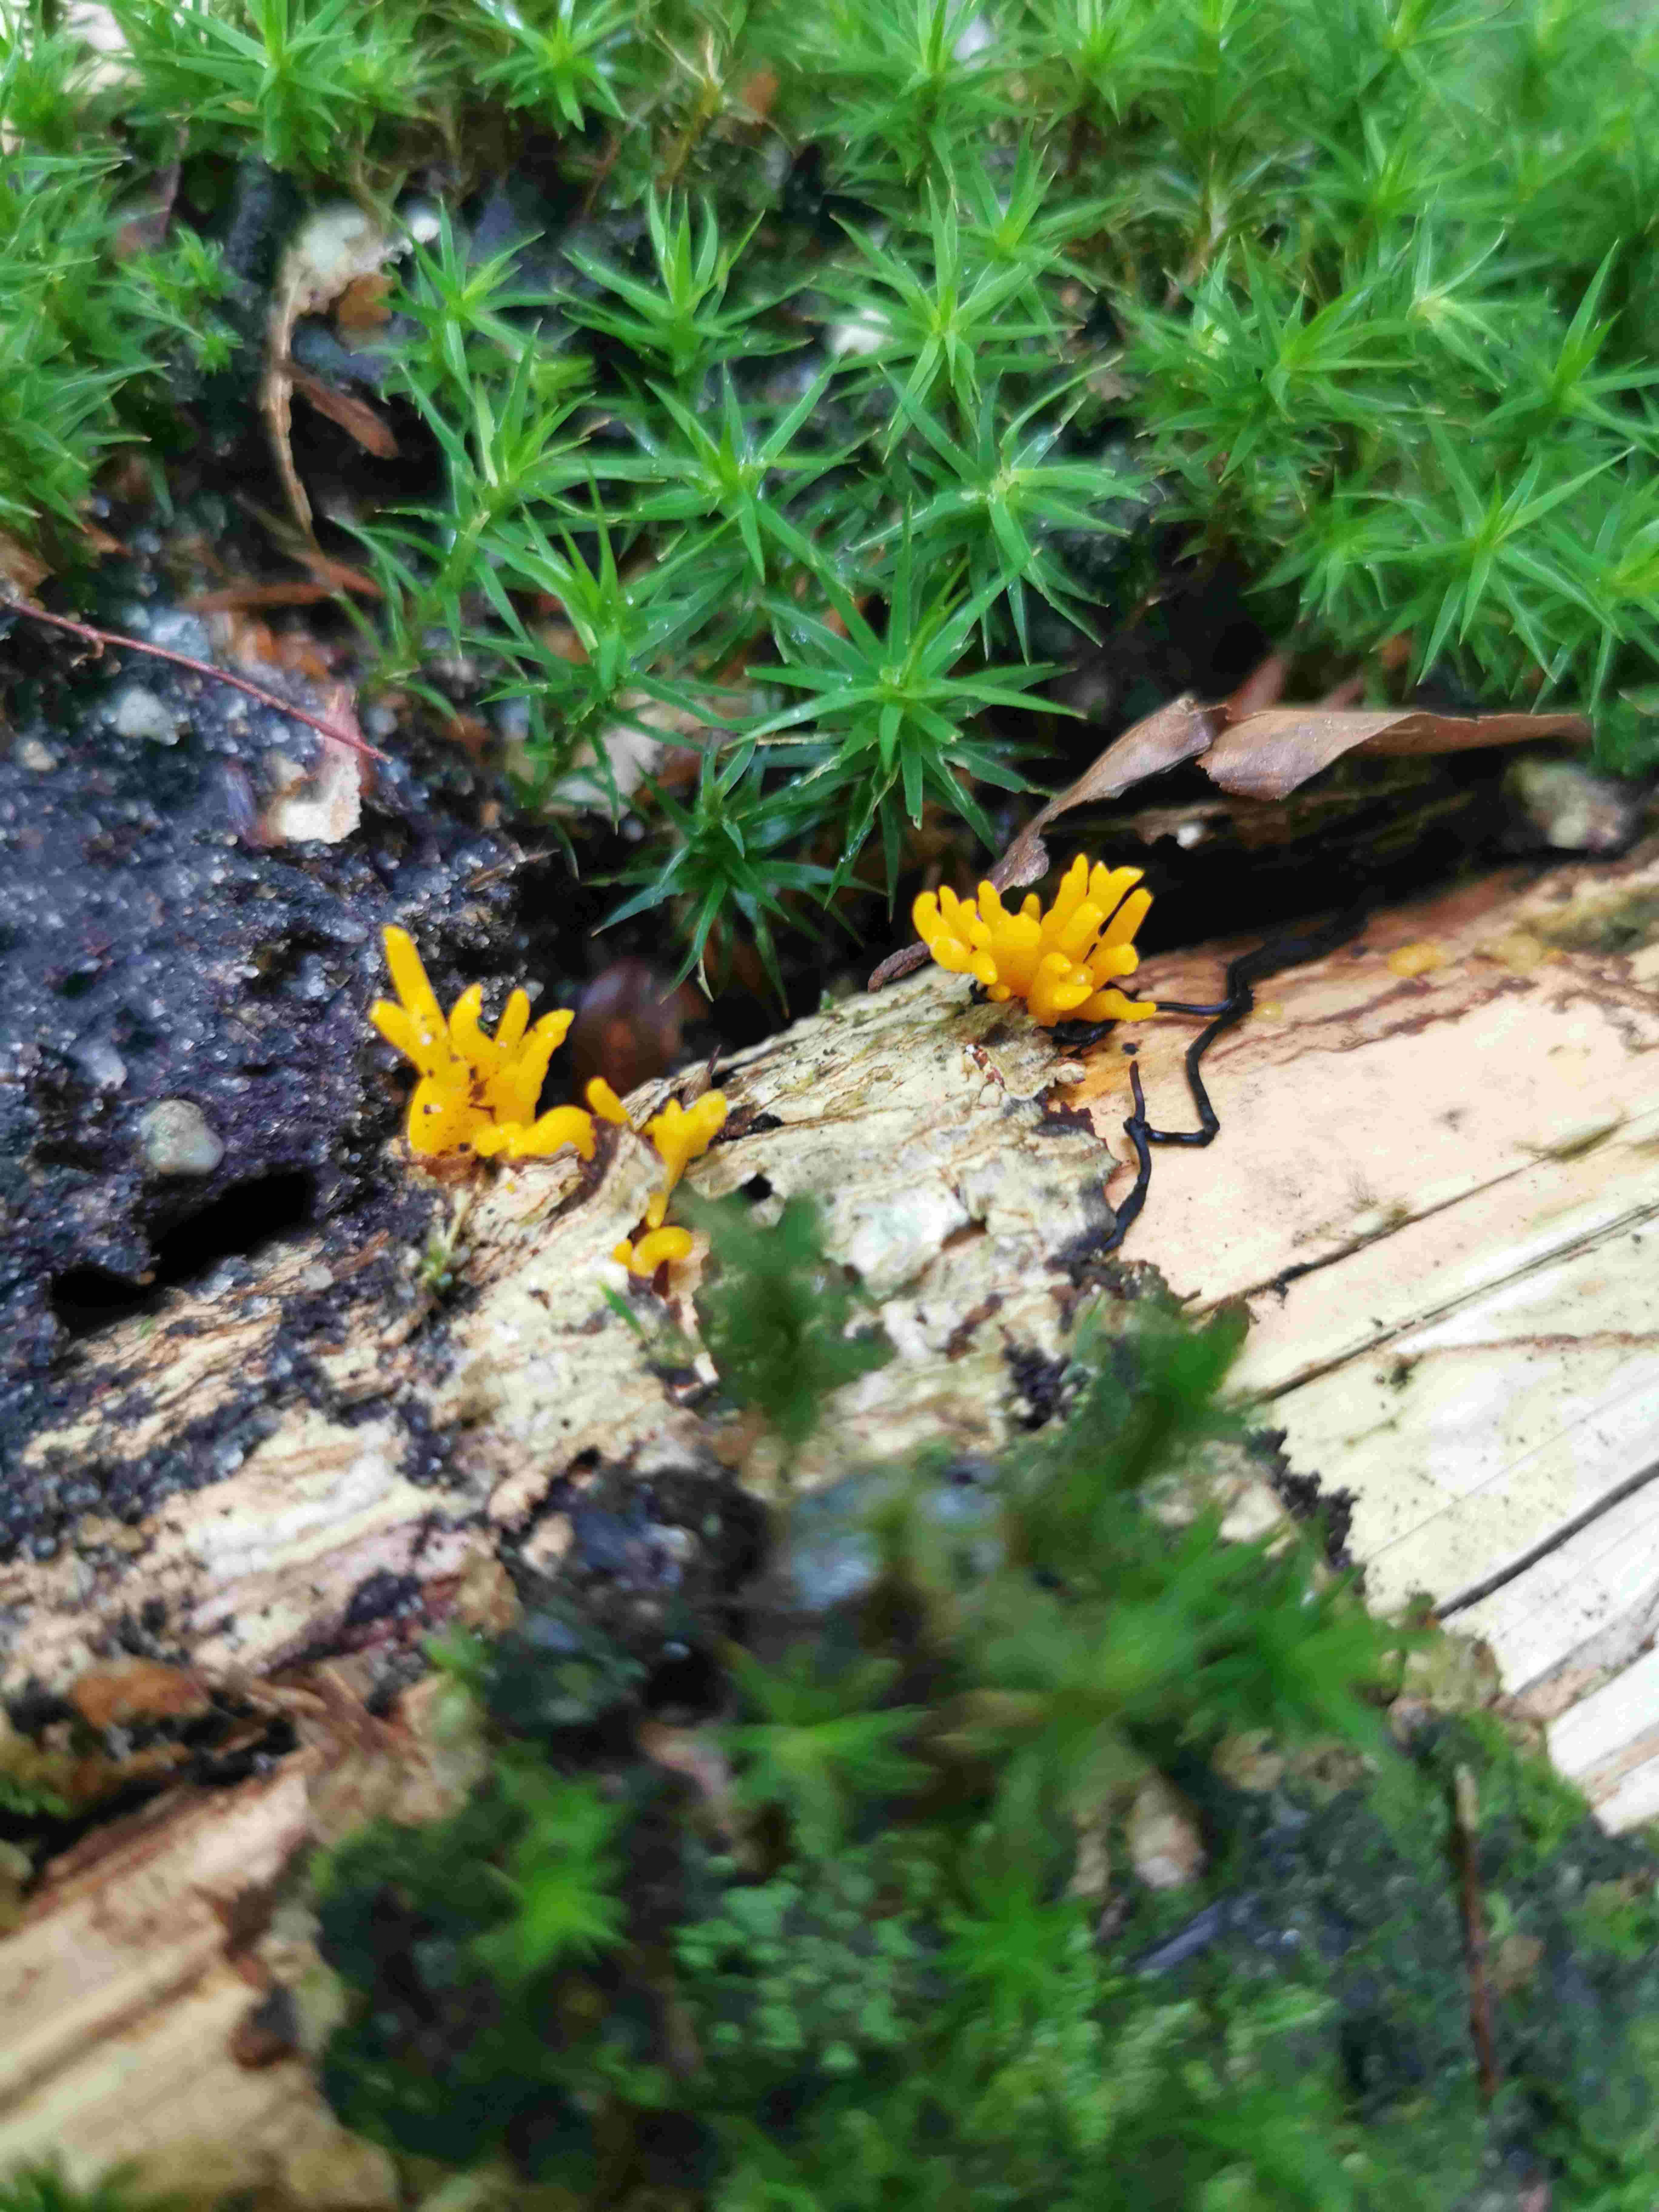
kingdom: Fungi
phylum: Basidiomycota
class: Dacrymycetes
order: Dacrymycetales
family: Dacrymycetaceae
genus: Calocera
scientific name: Calocera viscosa
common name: almindelig guldgaffel
